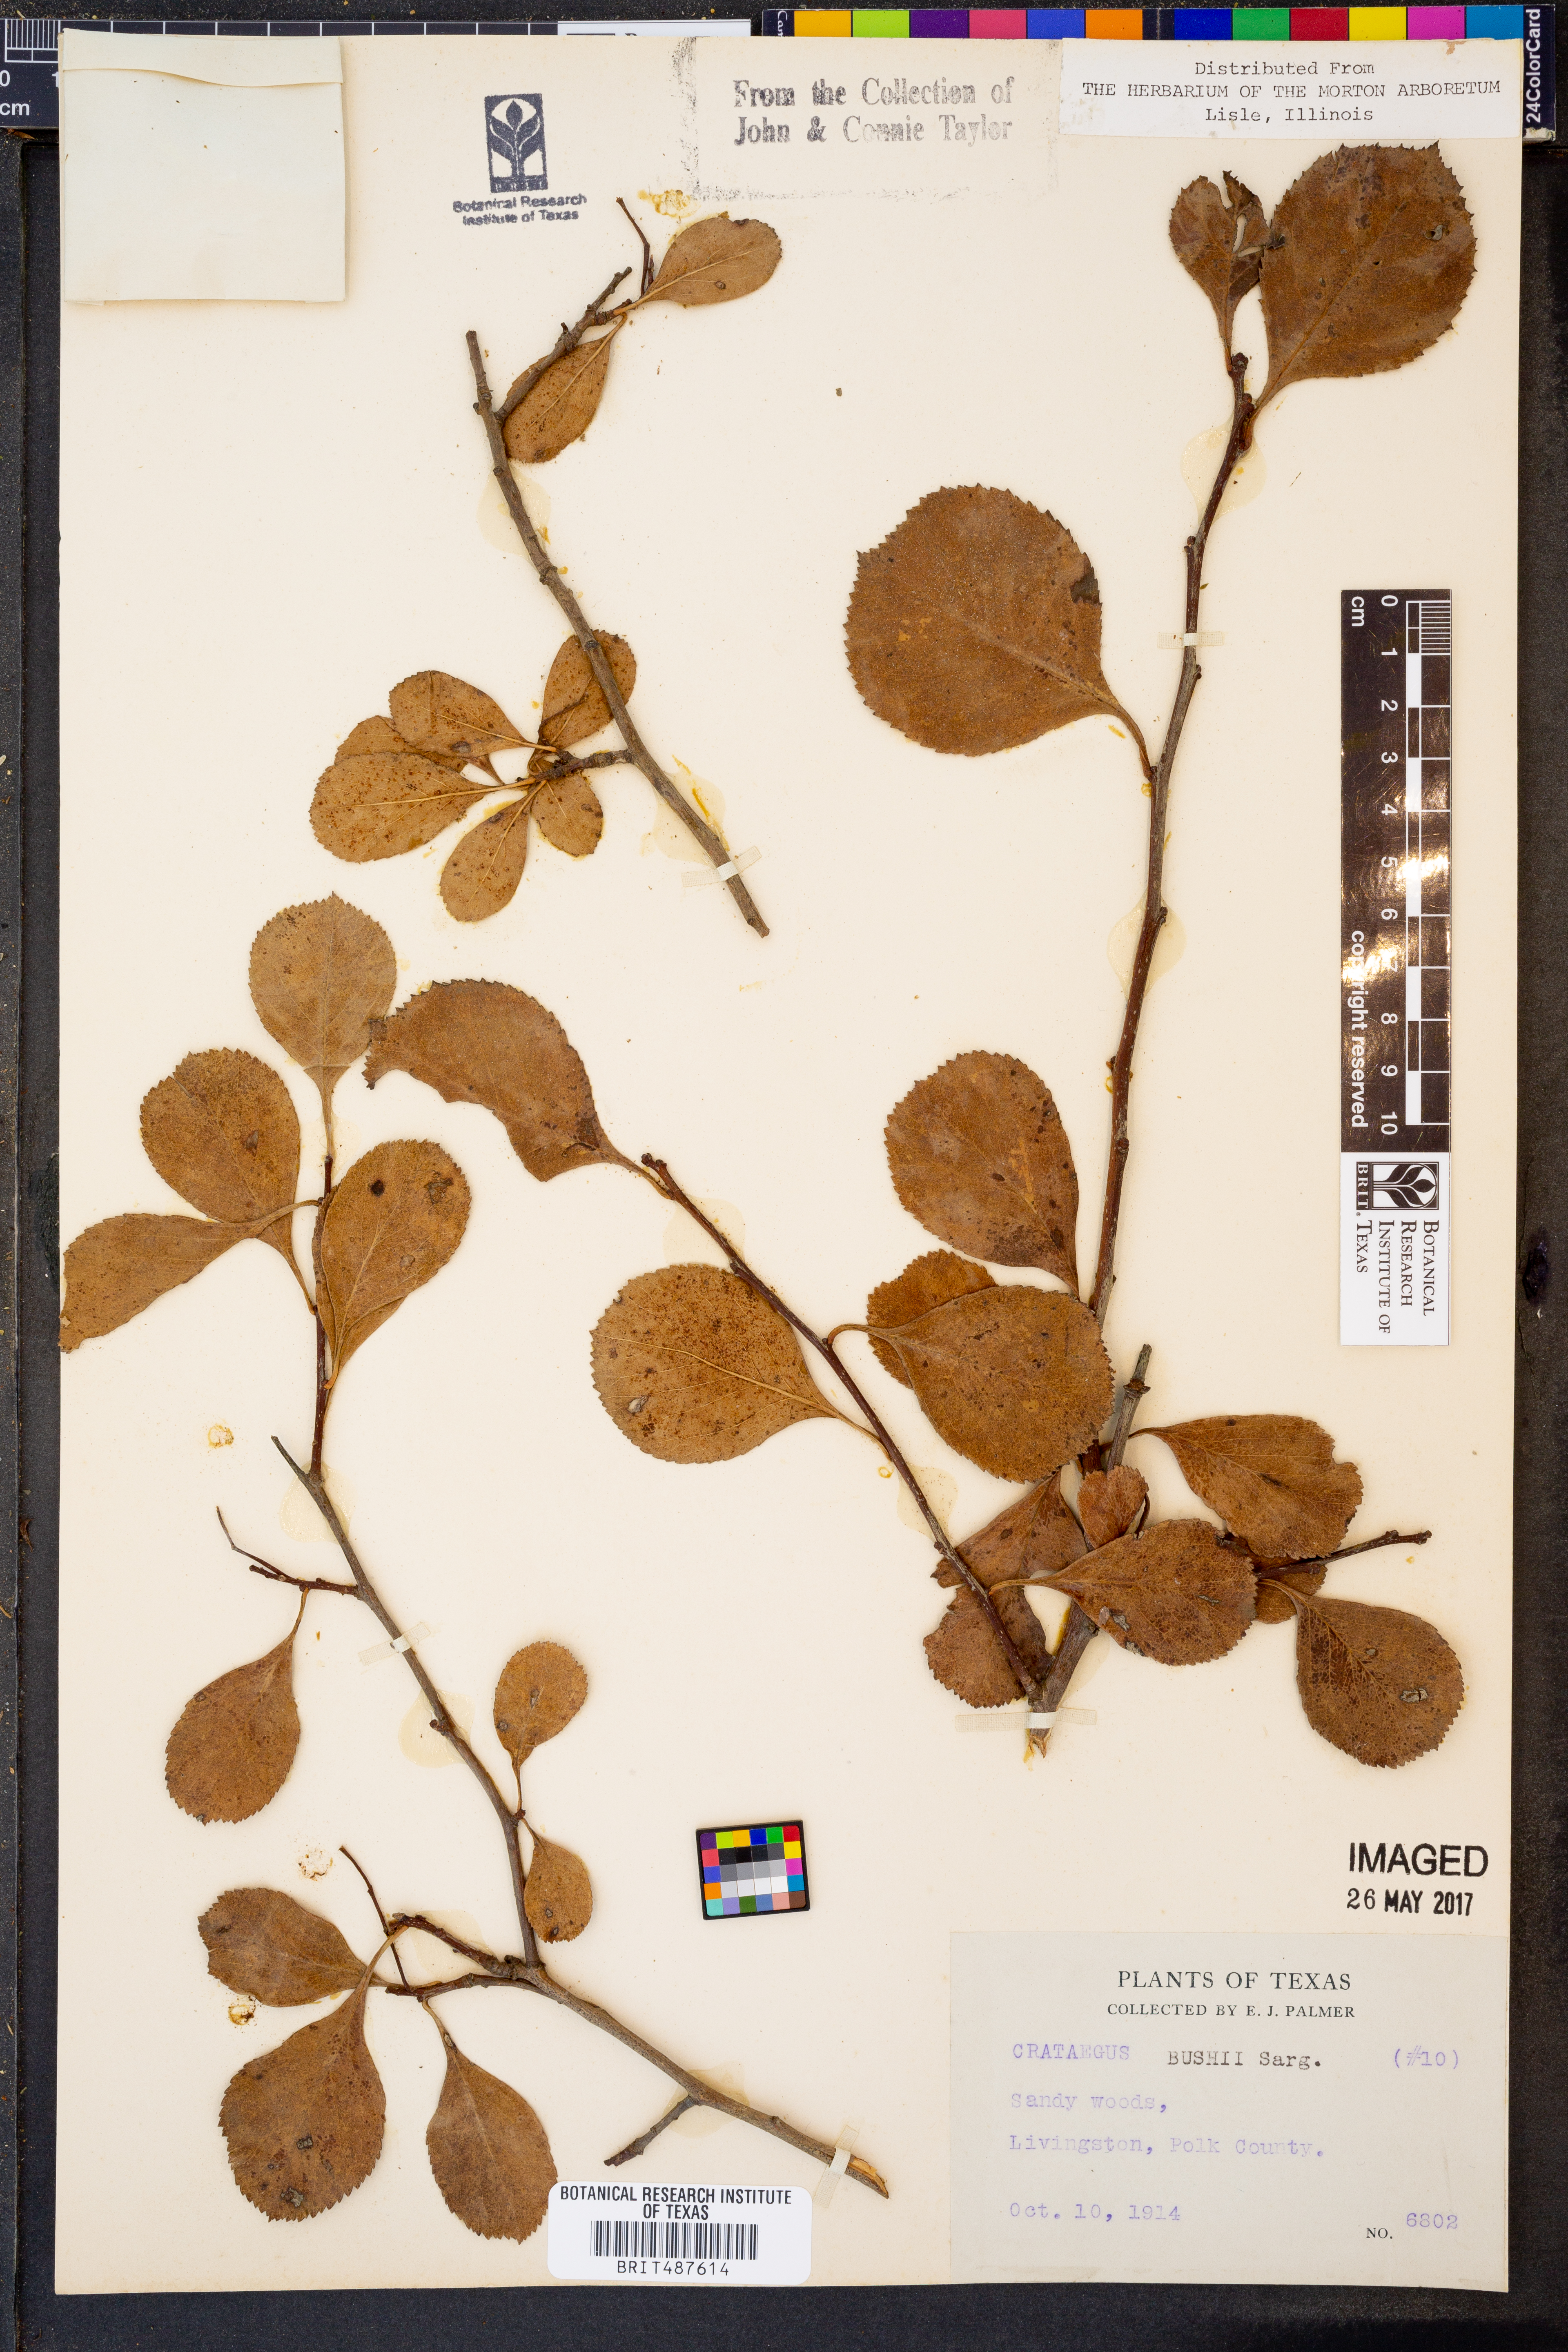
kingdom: Plantae
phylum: Tracheophyta
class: Magnoliopsida
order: Rosales
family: Rosaceae
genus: Crataegus
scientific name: Crataegus crus-galli
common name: Cockspurthorn
